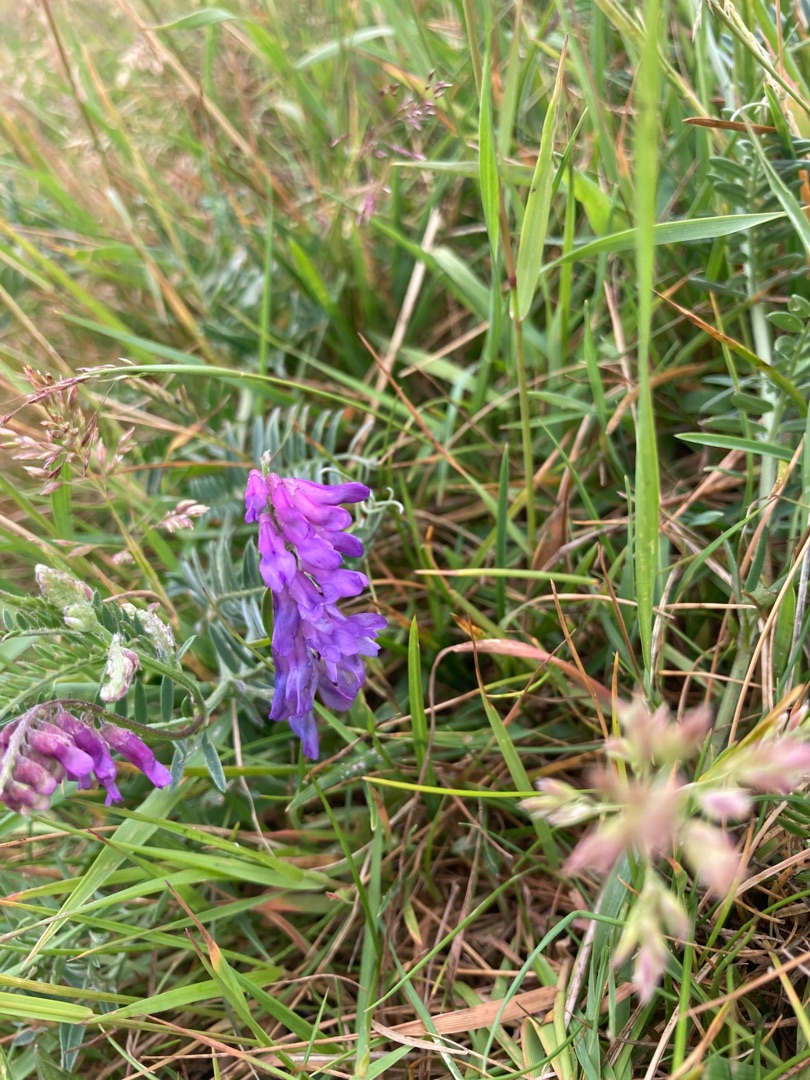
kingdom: Plantae
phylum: Tracheophyta
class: Magnoliopsida
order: Fabales
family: Fabaceae
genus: Vicia
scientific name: Vicia cracca
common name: Muse-vikke
